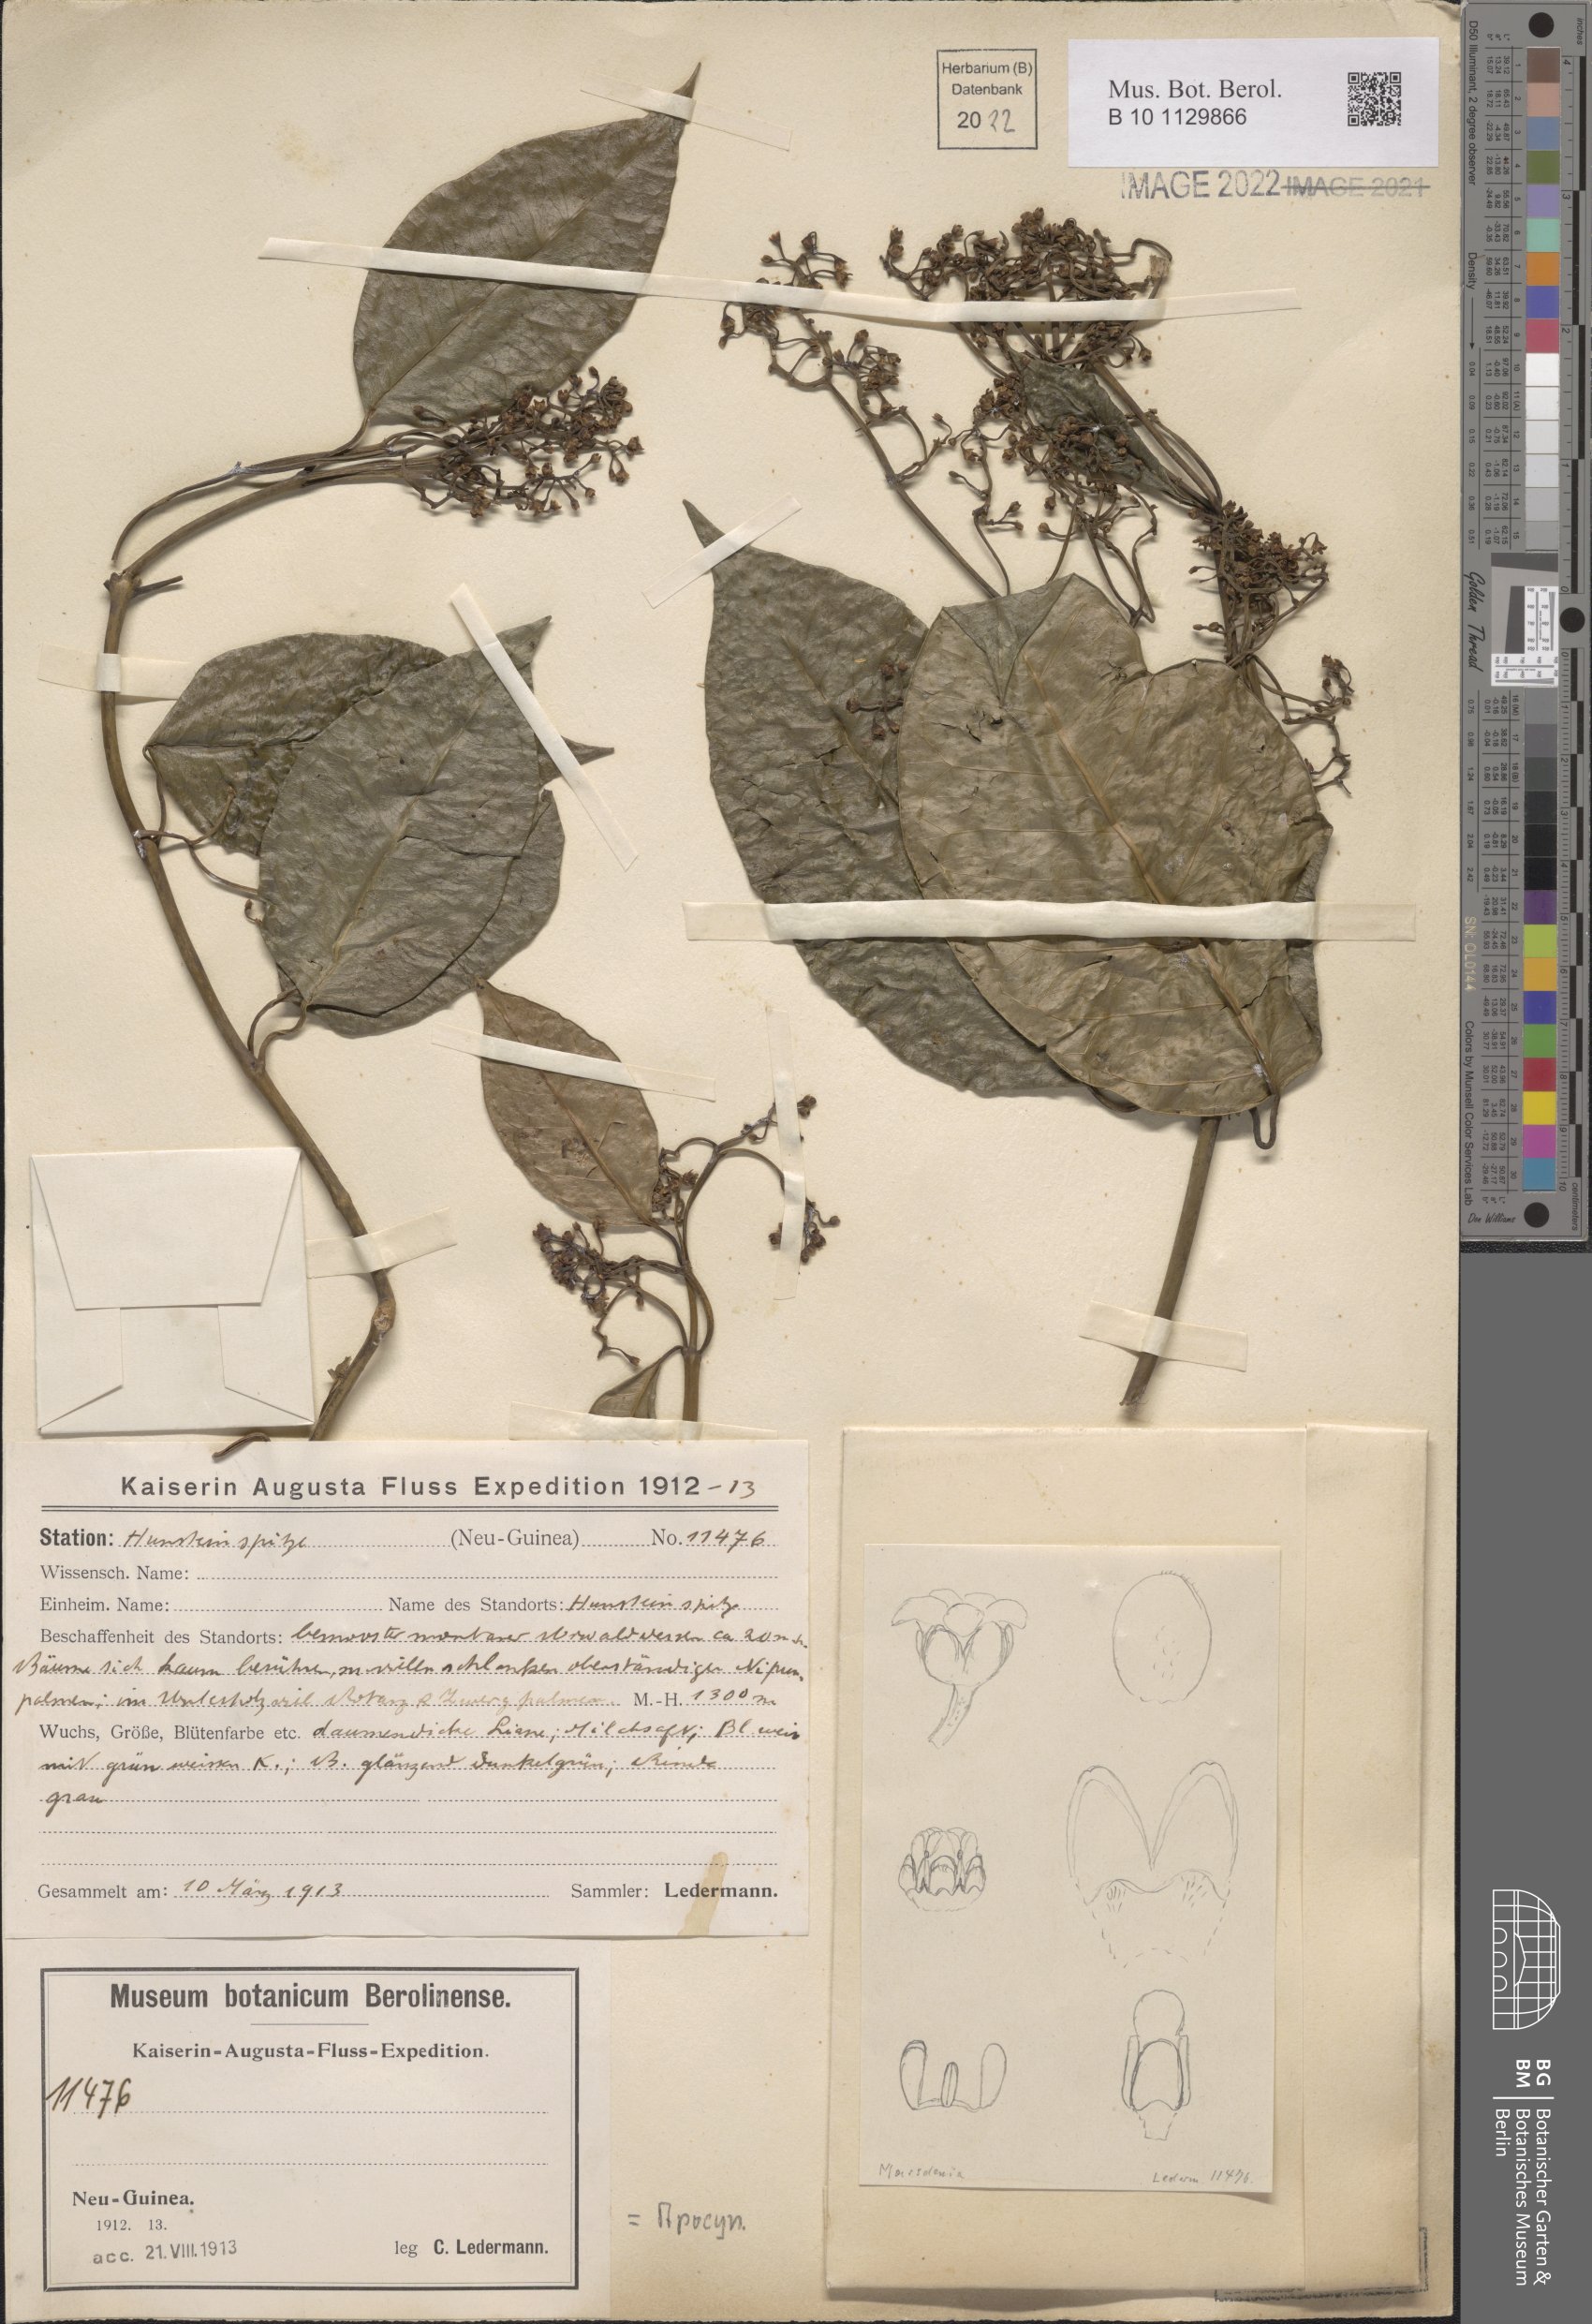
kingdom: Plantae
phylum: Tracheophyta
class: Magnoliopsida
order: Gentianales
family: Apocynaceae
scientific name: Apocynaceae
